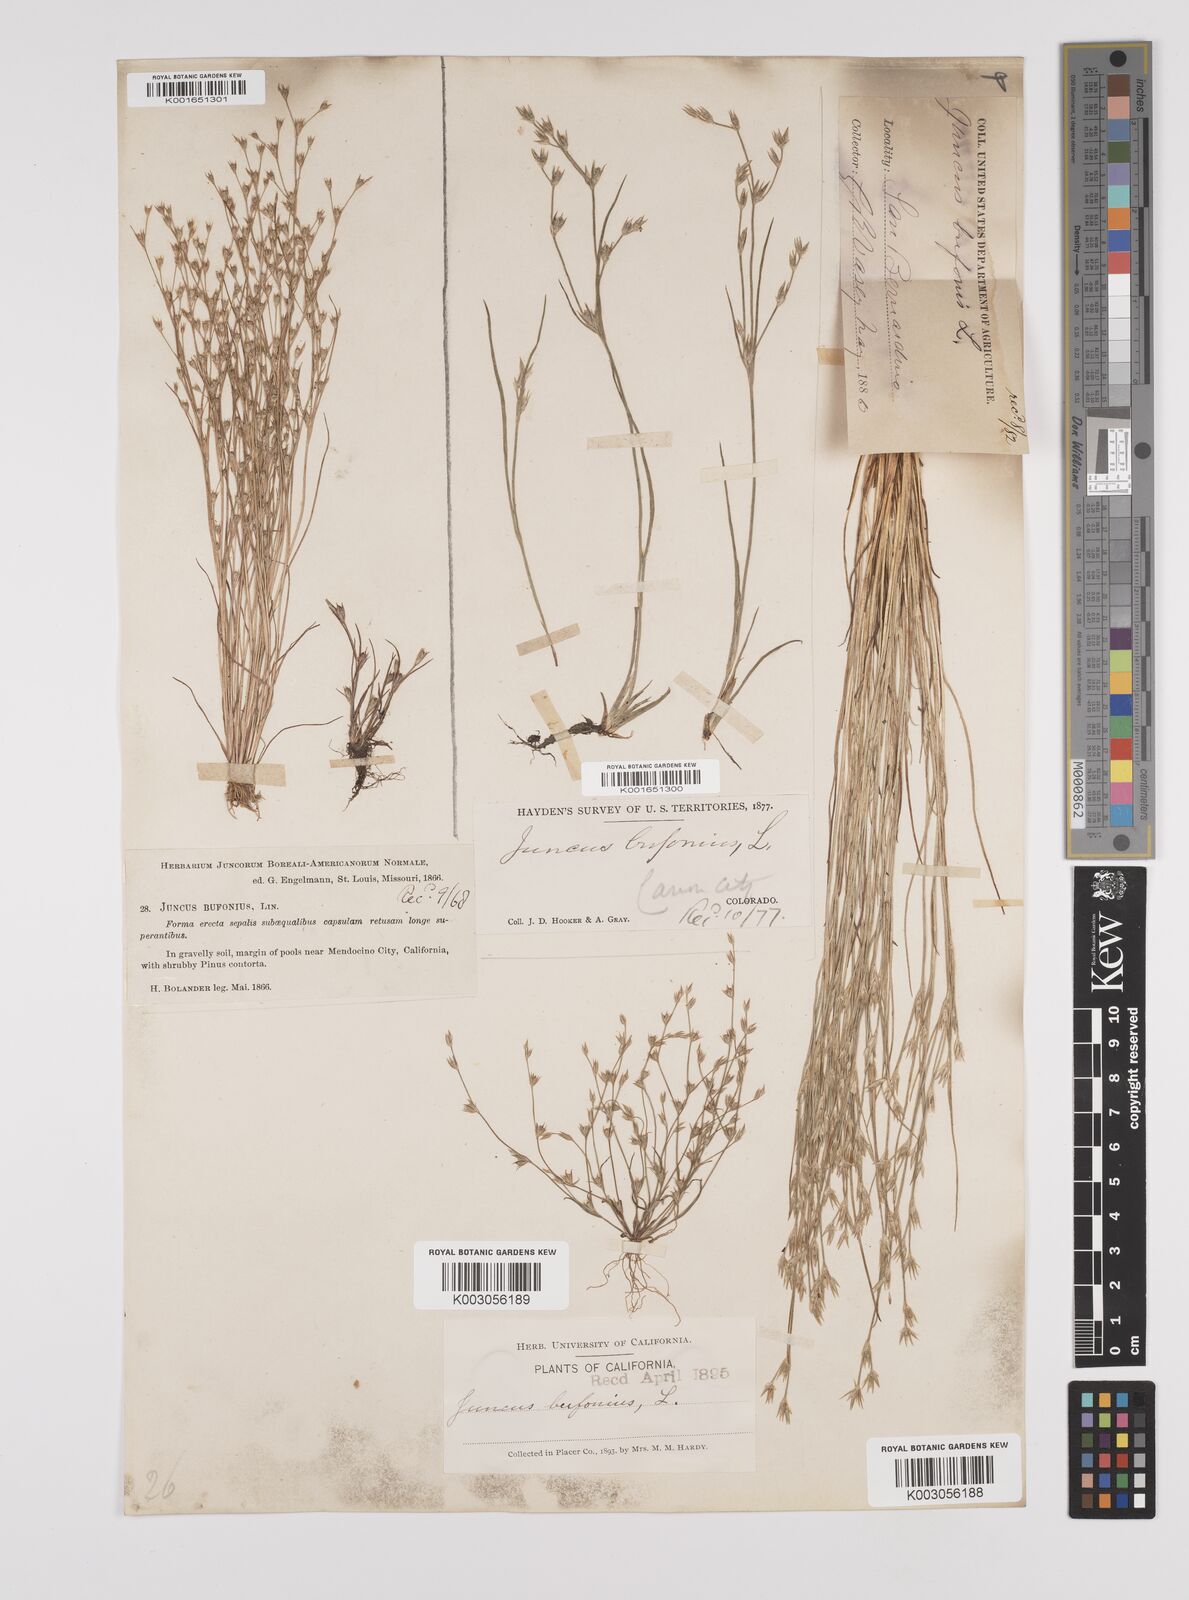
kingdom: Plantae
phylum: Tracheophyta
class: Liliopsida
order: Poales
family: Juncaceae
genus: Juncus
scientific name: Juncus bufonius
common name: Toad rush
